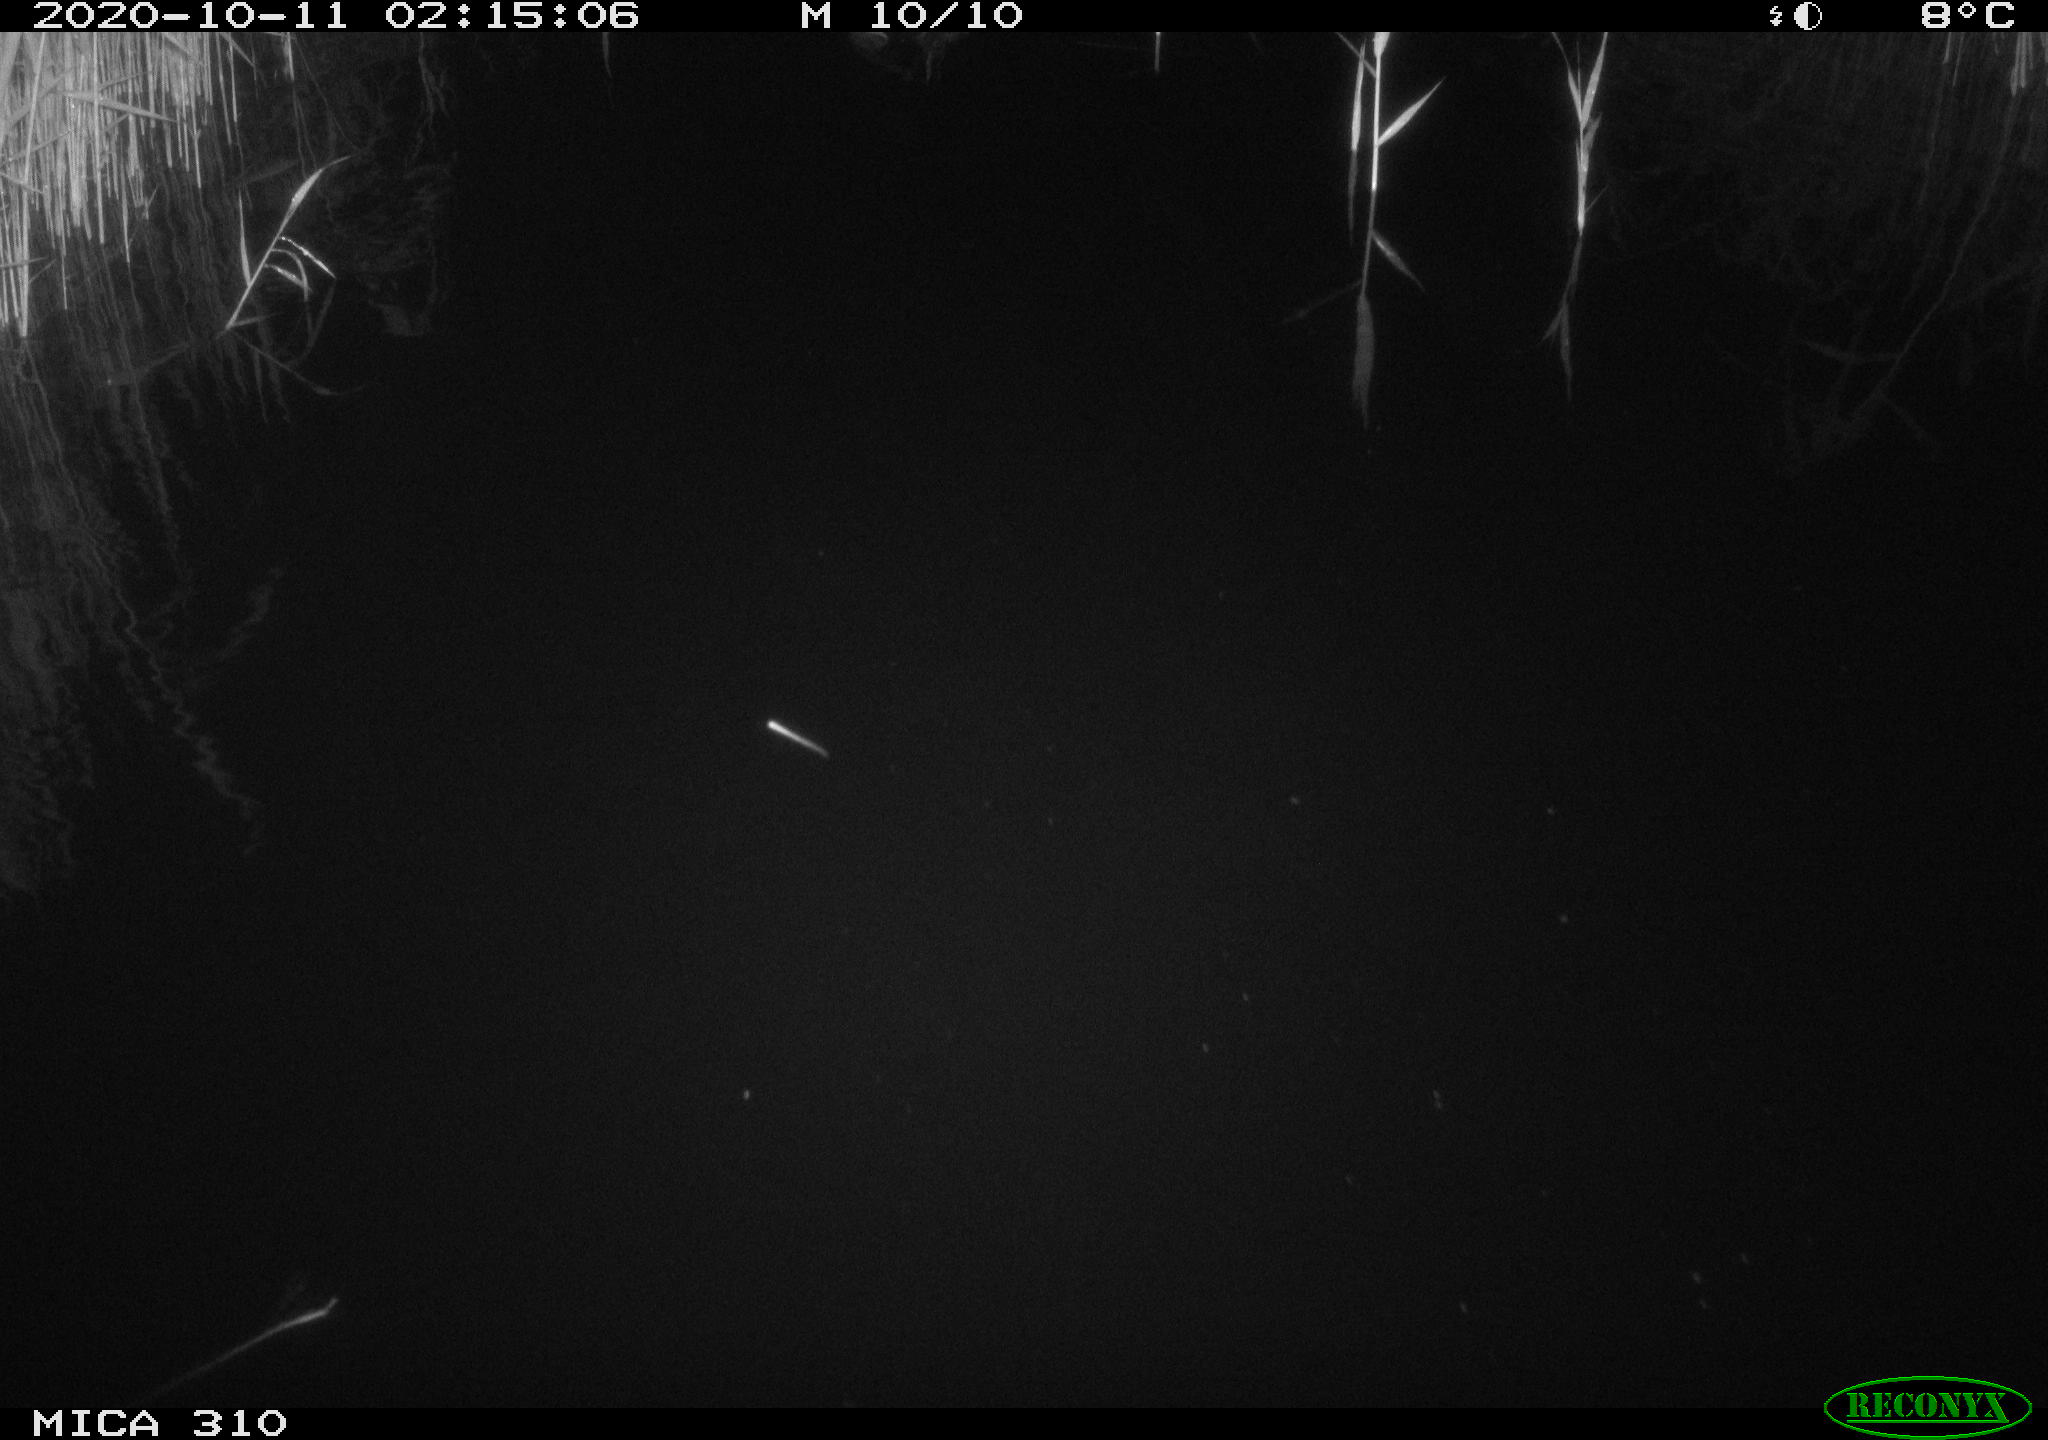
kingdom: Animalia
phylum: Chordata
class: Aves
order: Anseriformes
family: Anatidae
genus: Anas
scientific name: Anas platyrhynchos
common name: Mallard
